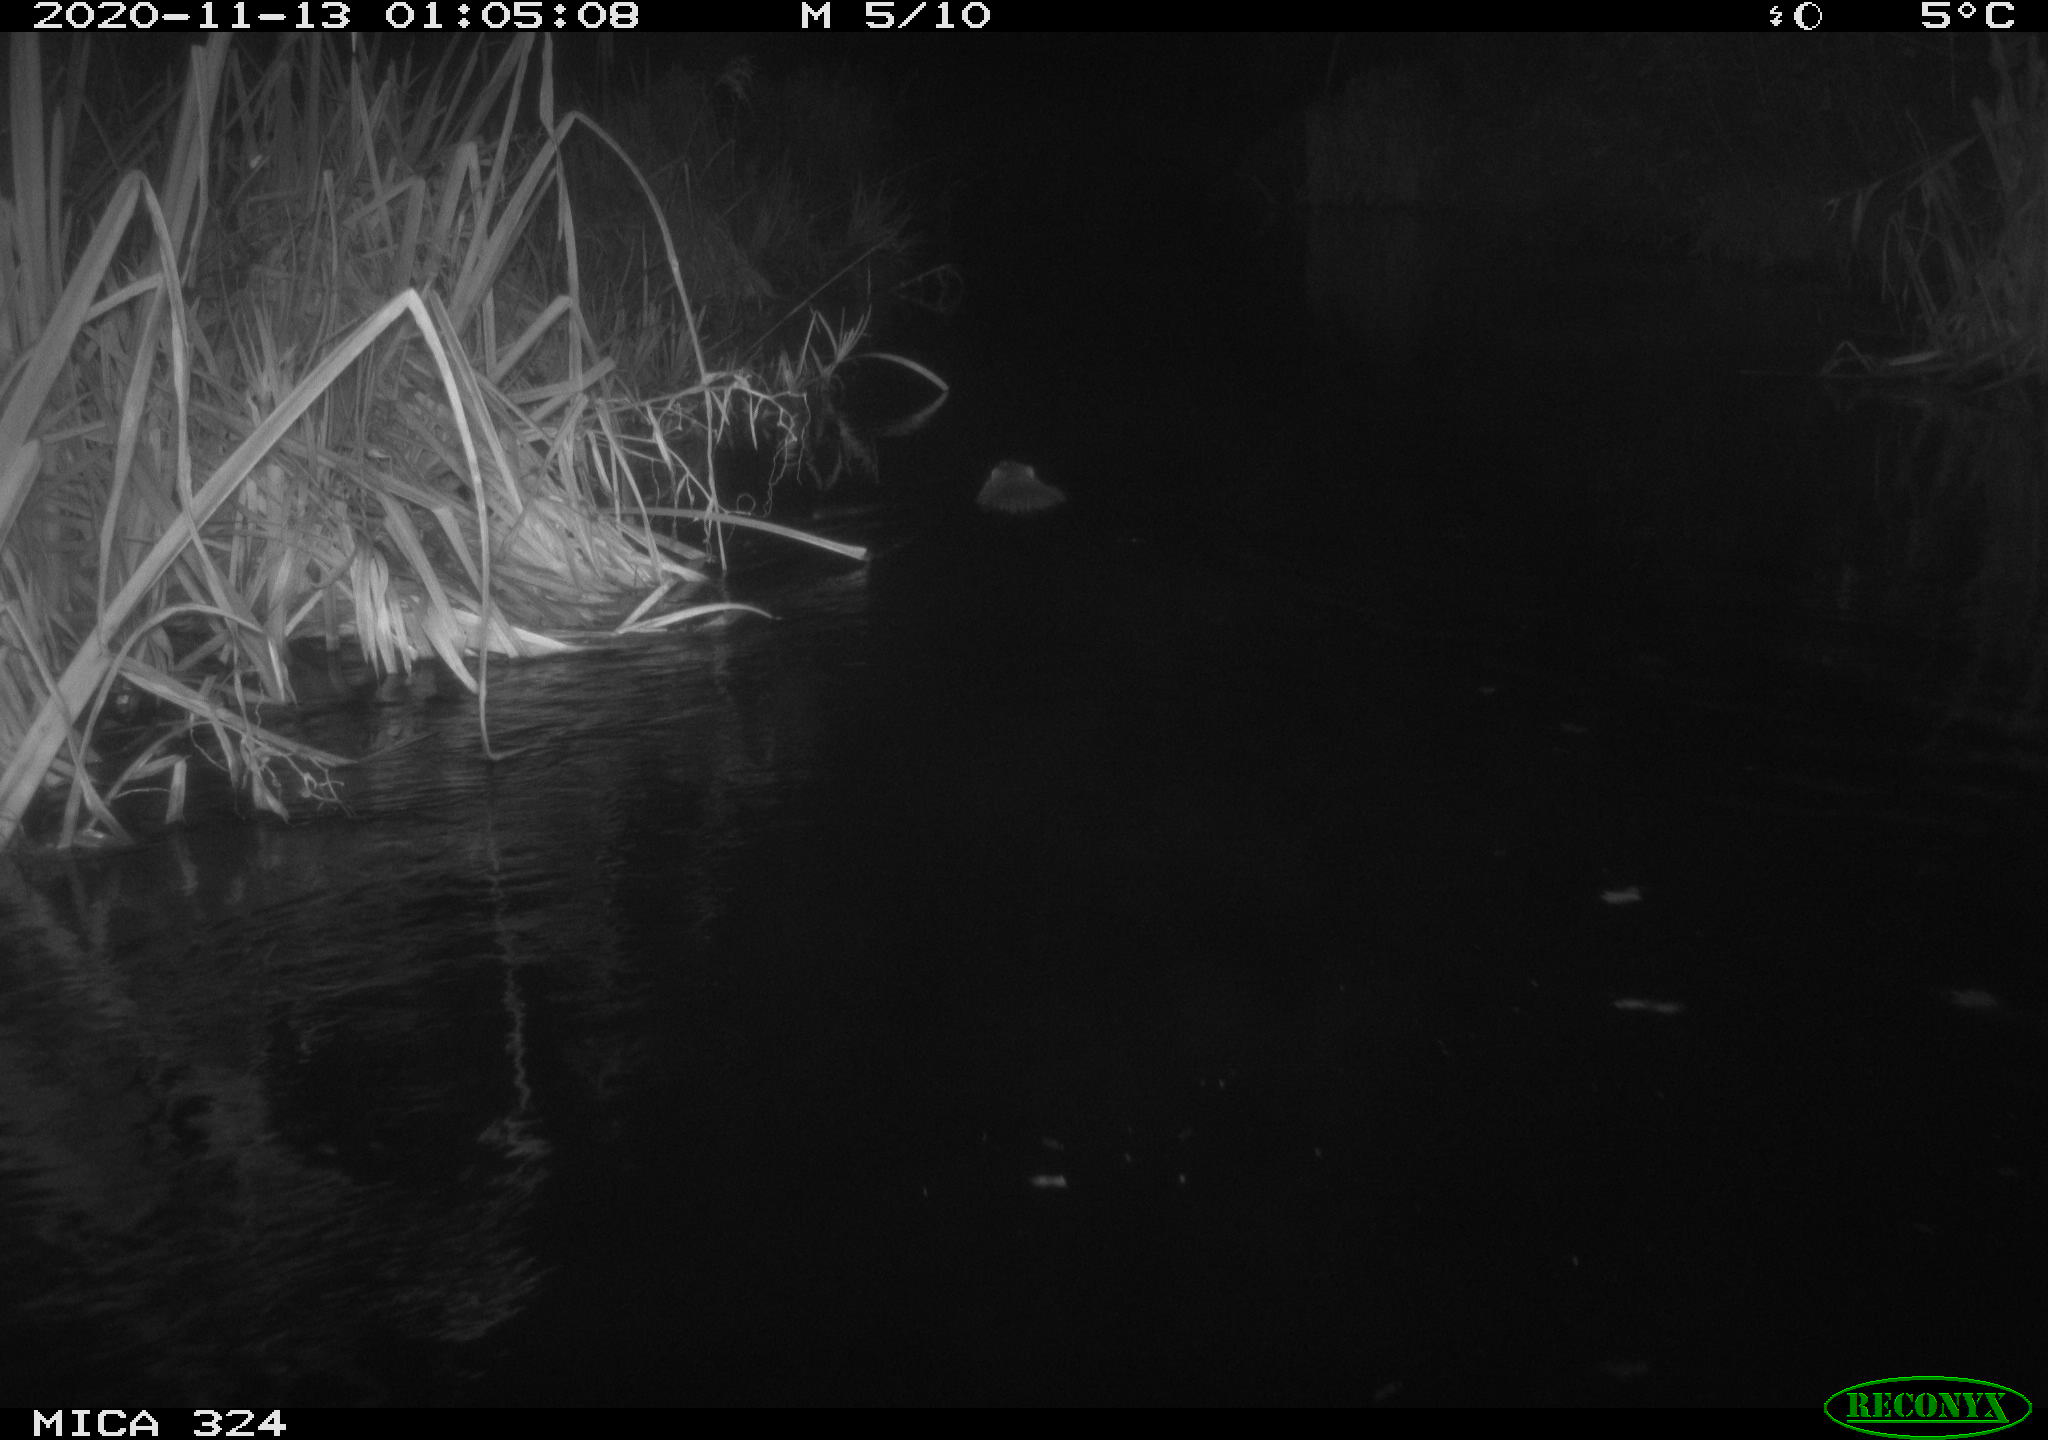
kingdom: Animalia
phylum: Chordata
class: Mammalia
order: Rodentia
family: Myocastoridae
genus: Myocastor
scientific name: Myocastor coypus
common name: Coypu
